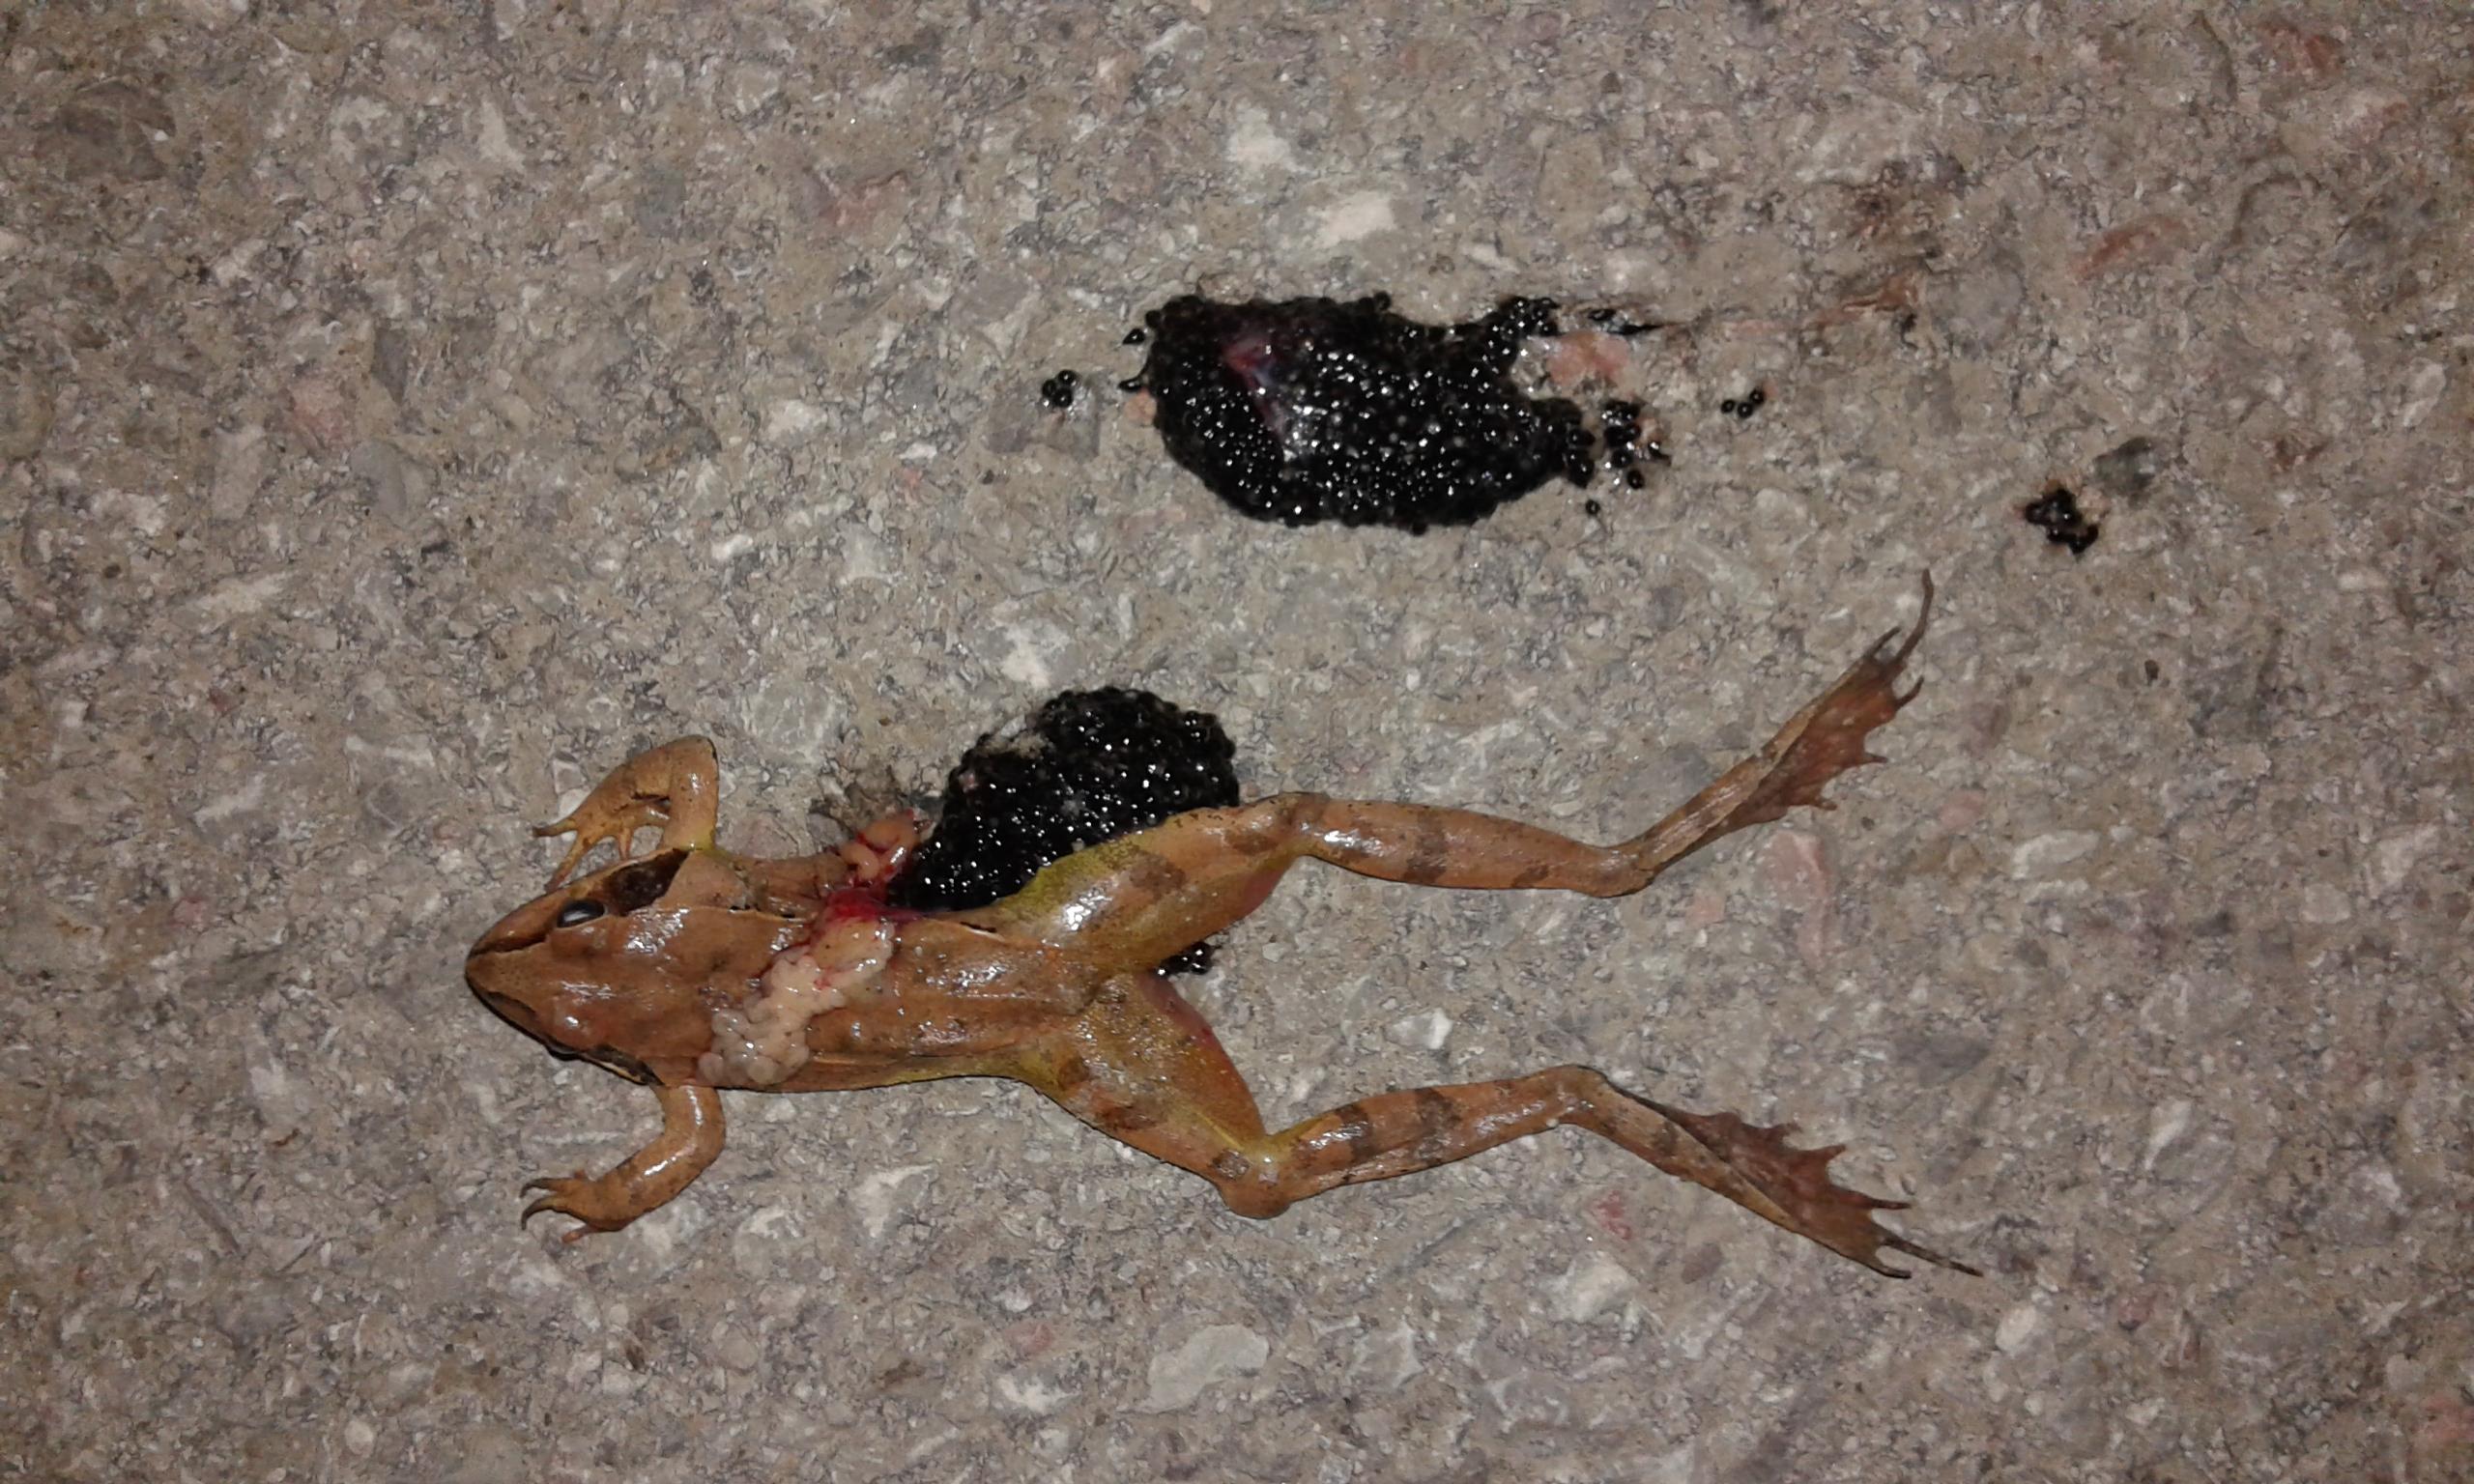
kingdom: Animalia
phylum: Chordata
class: Amphibia
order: Anura
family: Ranidae
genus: Rana
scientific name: Rana dalmatina
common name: Agile frog
